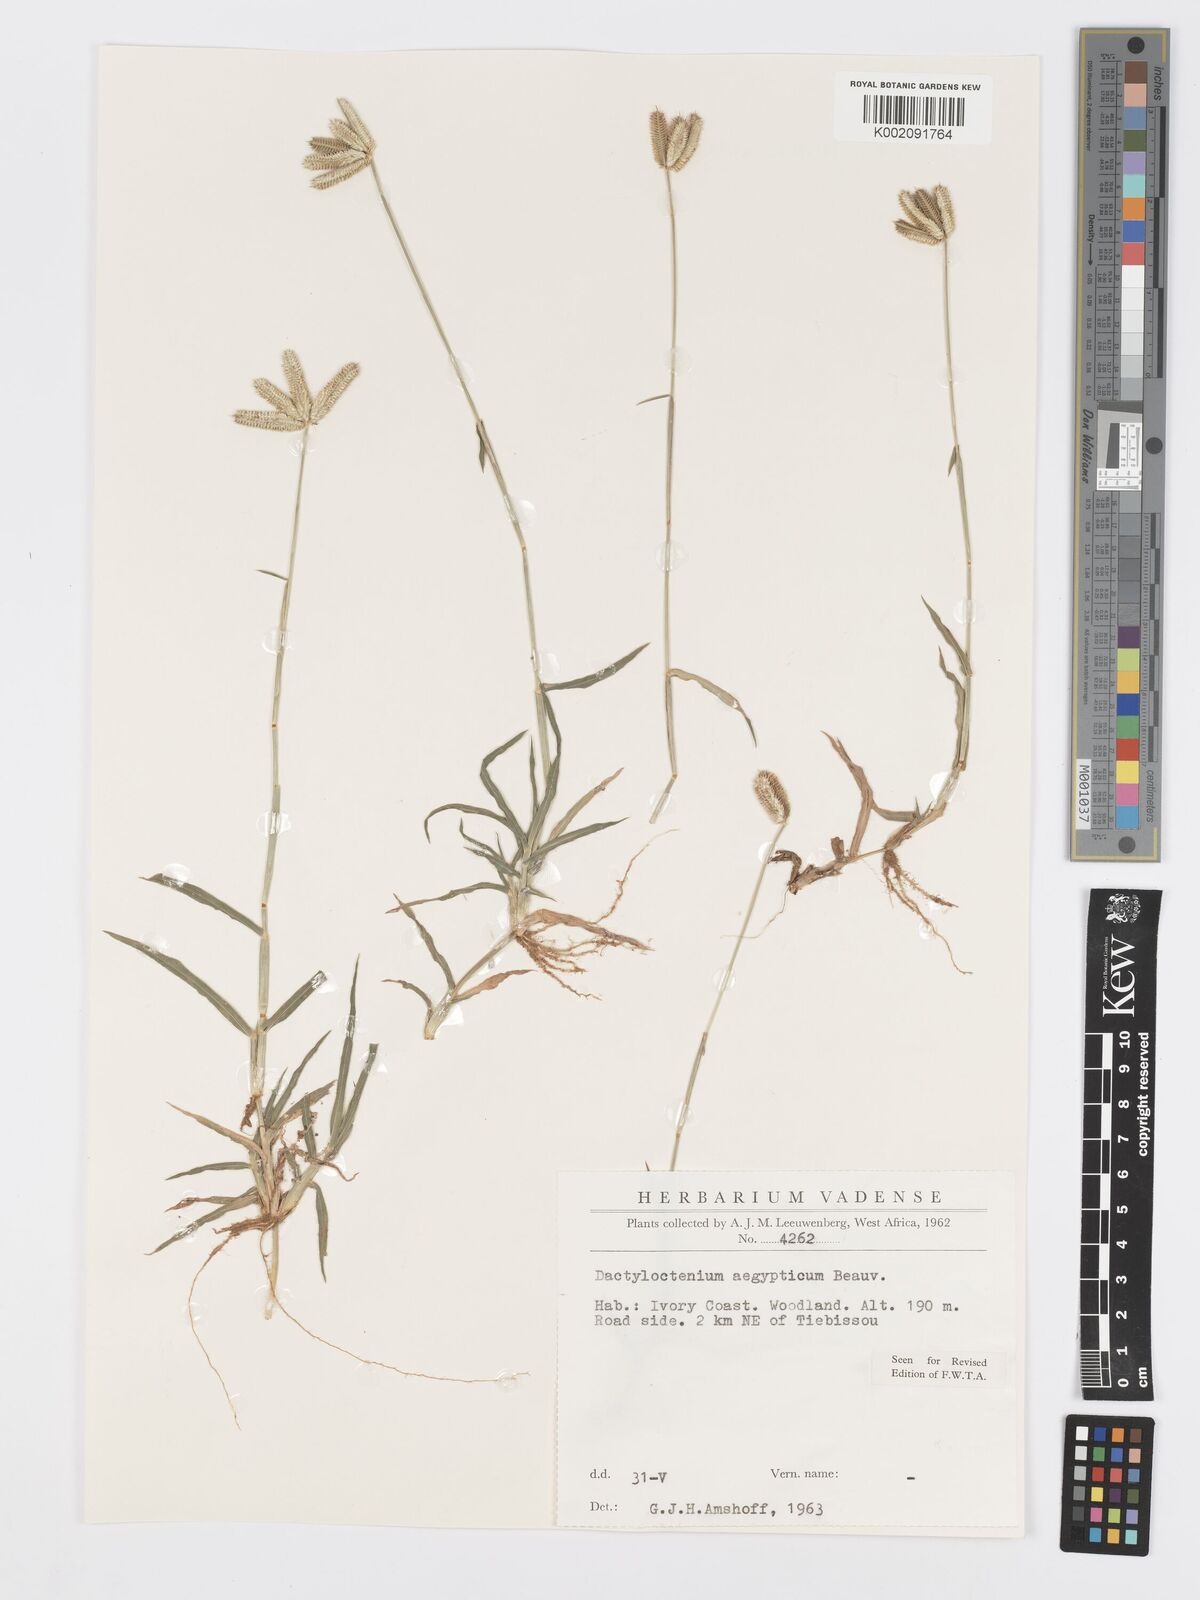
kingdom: Plantae
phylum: Tracheophyta
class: Liliopsida
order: Poales
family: Poaceae
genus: Dactyloctenium
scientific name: Dactyloctenium aegyptium
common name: Egyptian grass
